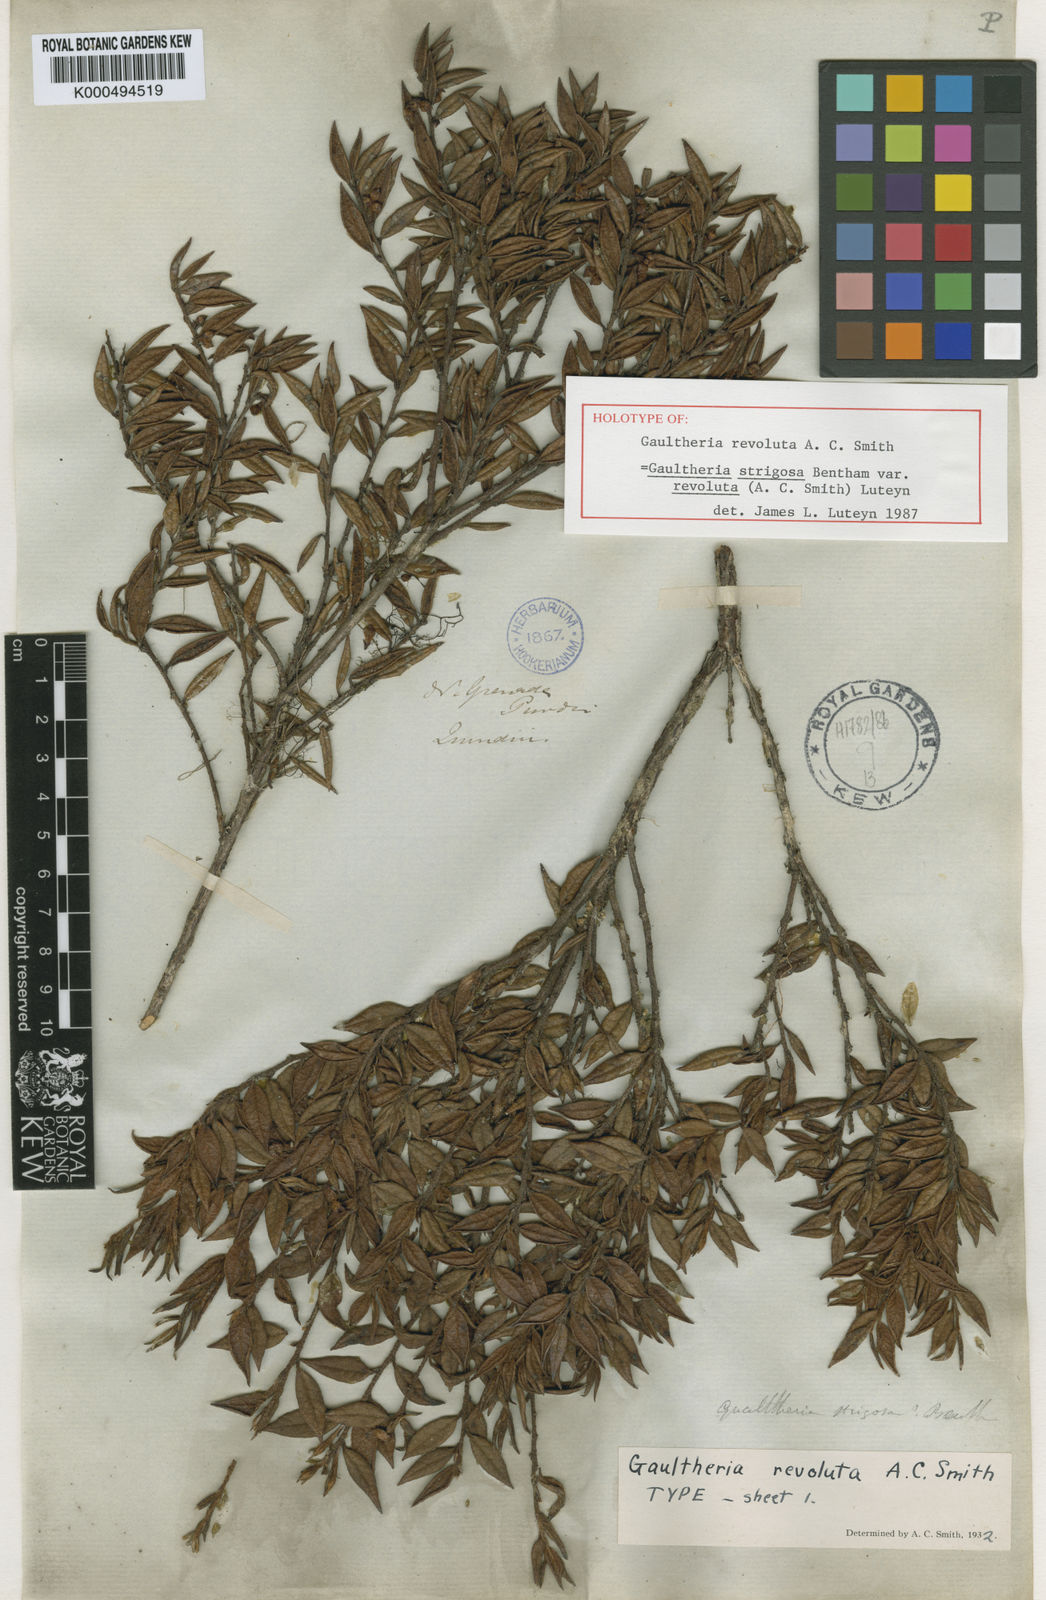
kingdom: Plantae
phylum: Tracheophyta
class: Magnoliopsida
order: Ericales
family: Ericaceae
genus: Gaultheria
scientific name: Gaultheria strigosa
